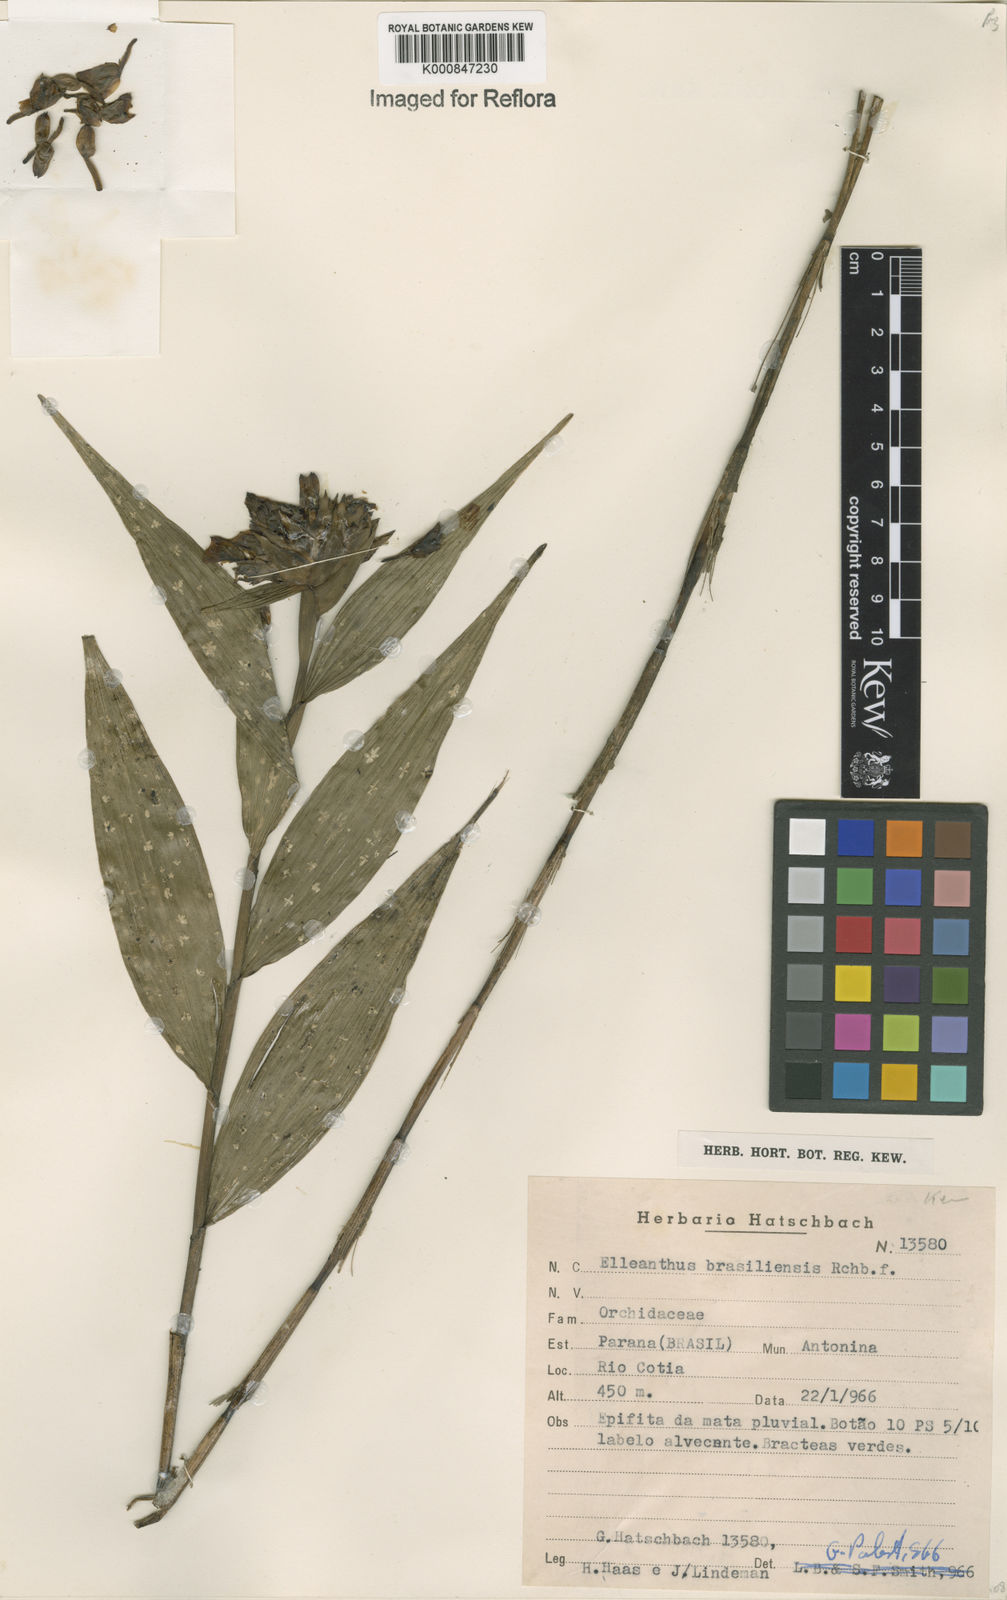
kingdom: Plantae
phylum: Tracheophyta
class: Liliopsida
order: Asparagales
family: Orchidaceae
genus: Elleanthus
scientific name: Elleanthus brasiliensis
